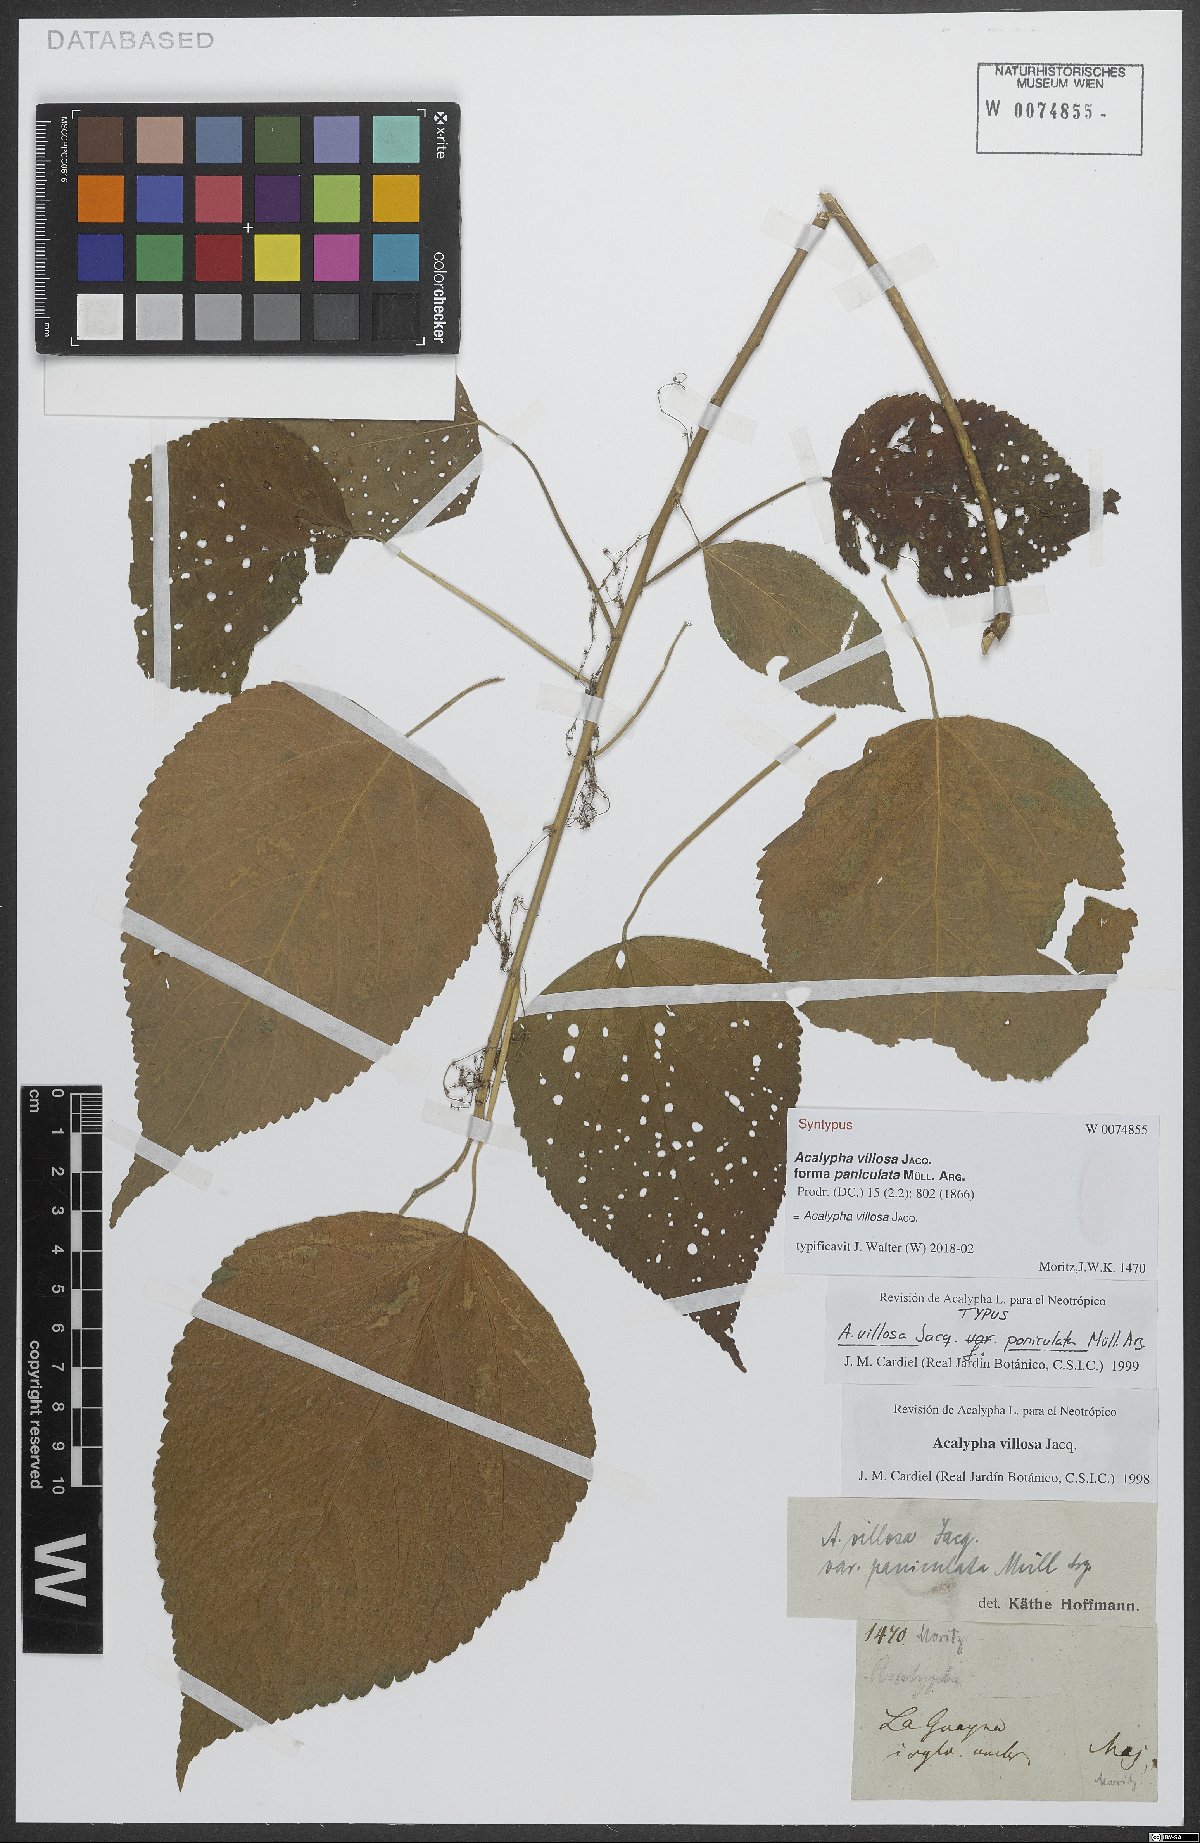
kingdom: Plantae
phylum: Tracheophyta
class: Magnoliopsida
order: Malpighiales
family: Euphorbiaceae
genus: Acalypha
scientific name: Acalypha villosa
